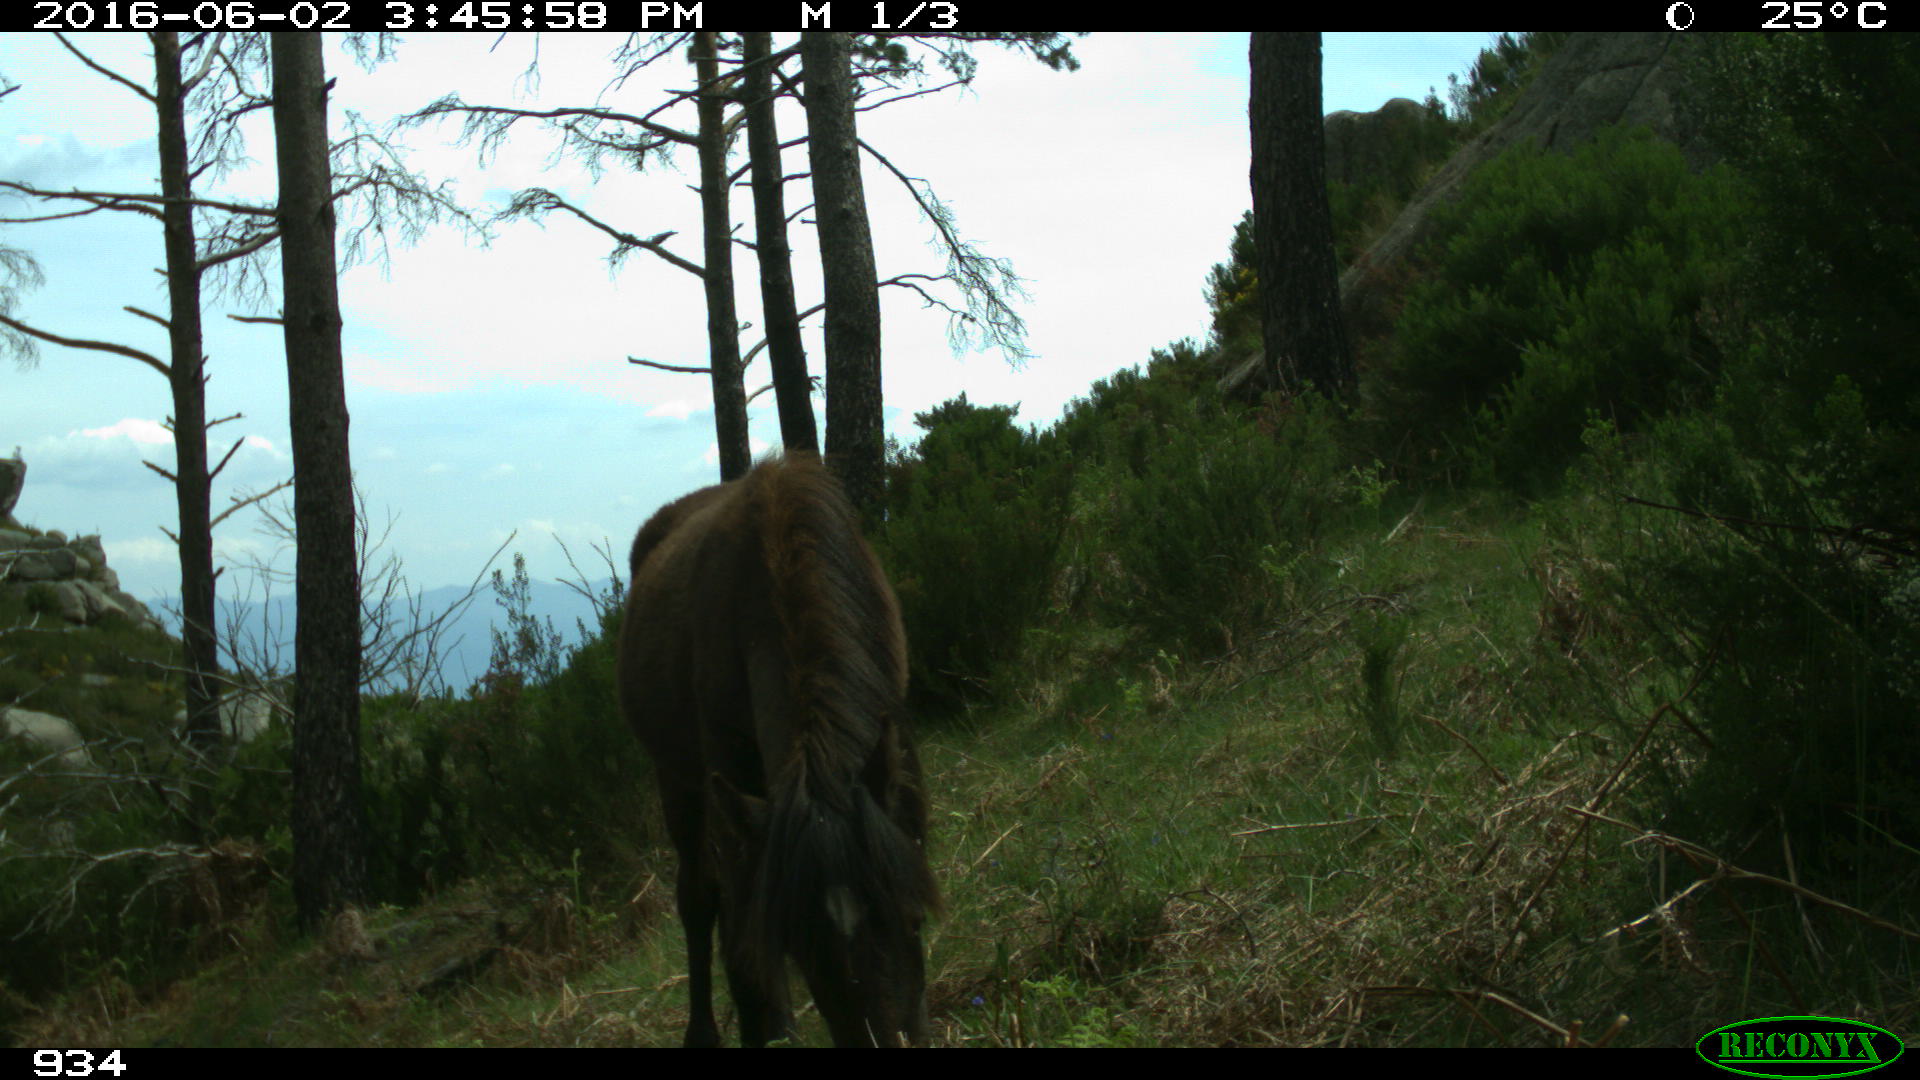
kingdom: Animalia
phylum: Chordata
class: Mammalia
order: Perissodactyla
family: Equidae
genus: Equus
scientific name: Equus caballus
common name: Horse
